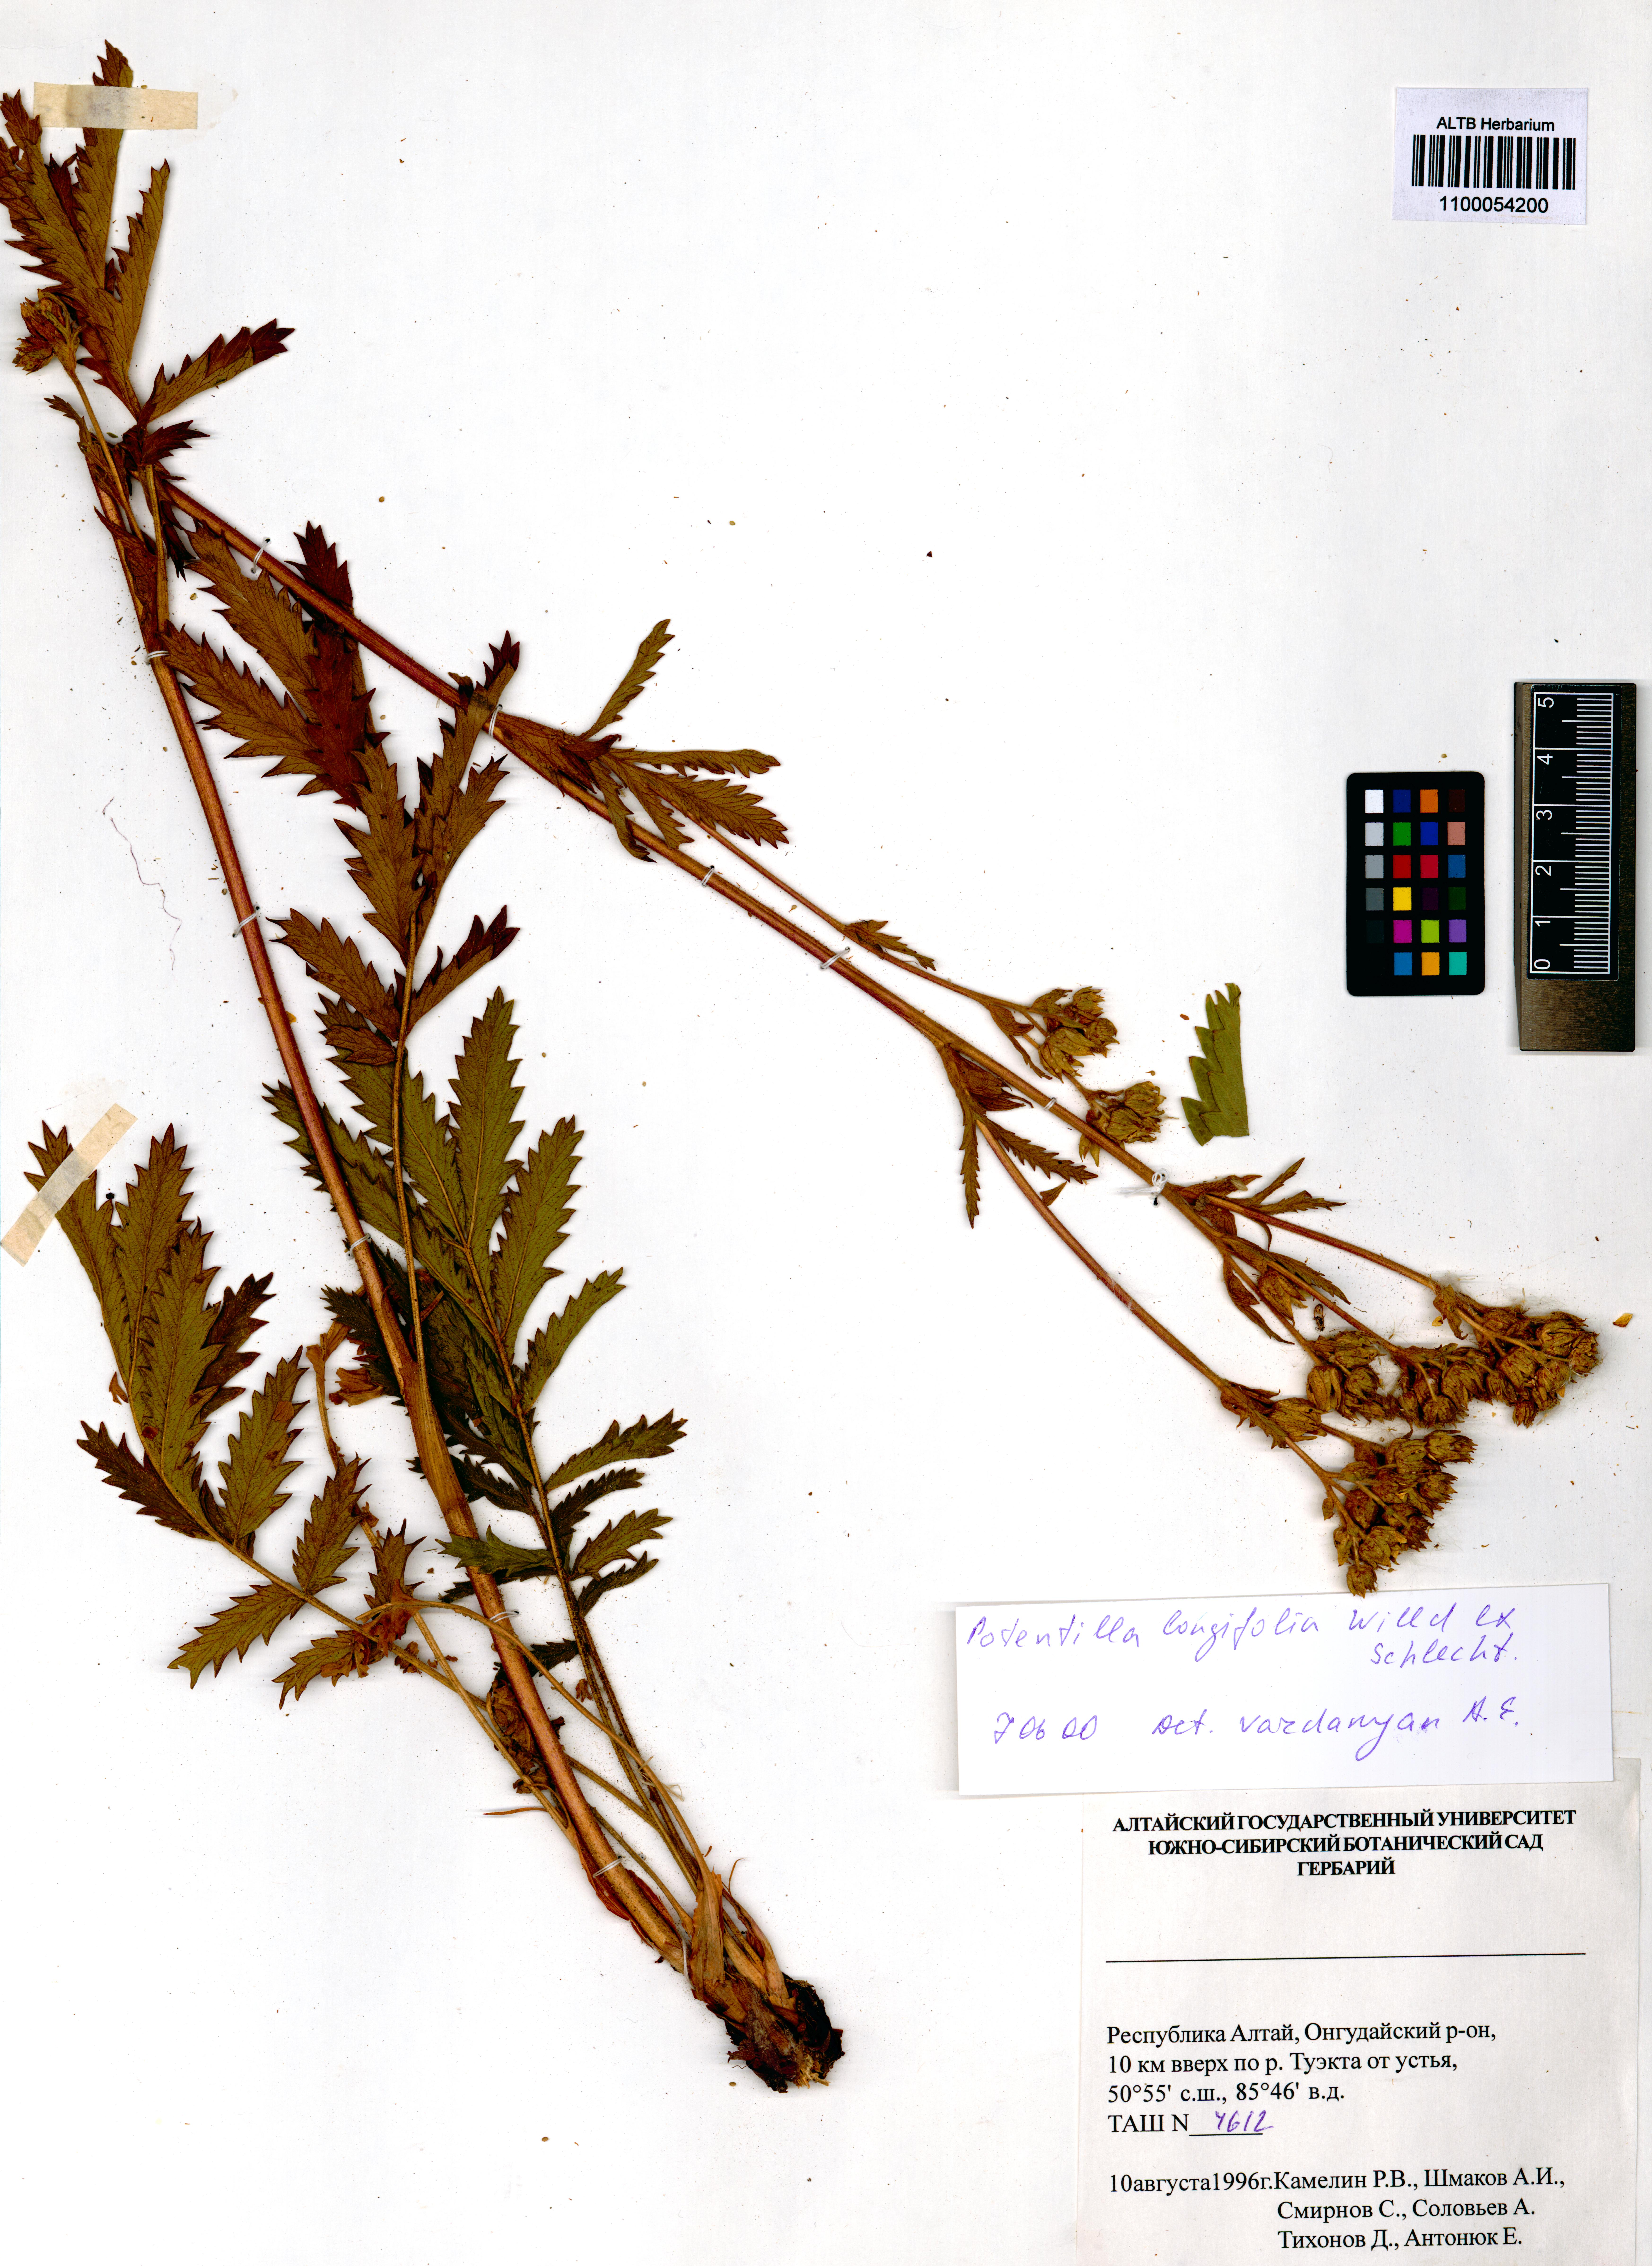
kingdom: Plantae
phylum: Tracheophyta
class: Magnoliopsida
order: Rosales
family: Rosaceae
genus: Potentilla
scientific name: Potentilla longifolia
